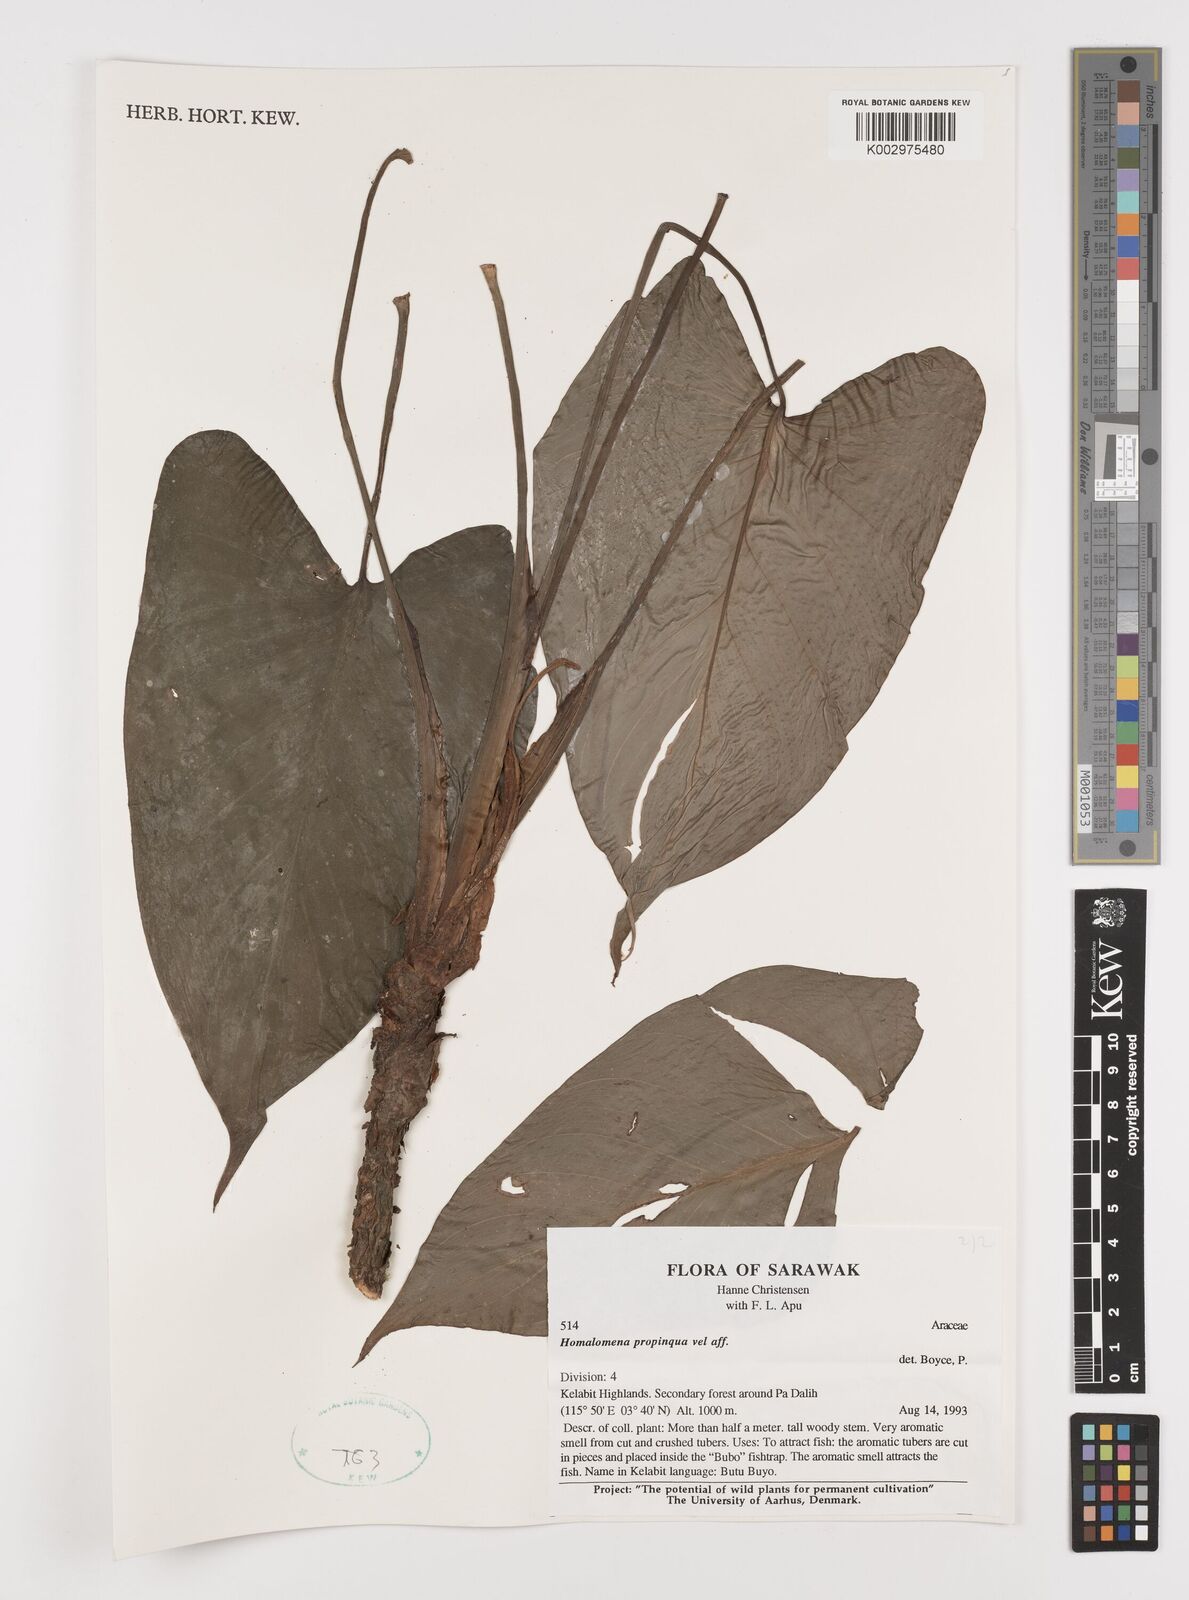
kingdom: Plantae
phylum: Tracheophyta
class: Liliopsida
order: Alismatales
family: Araceae
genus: Homalomena
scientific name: Homalomena humilis
